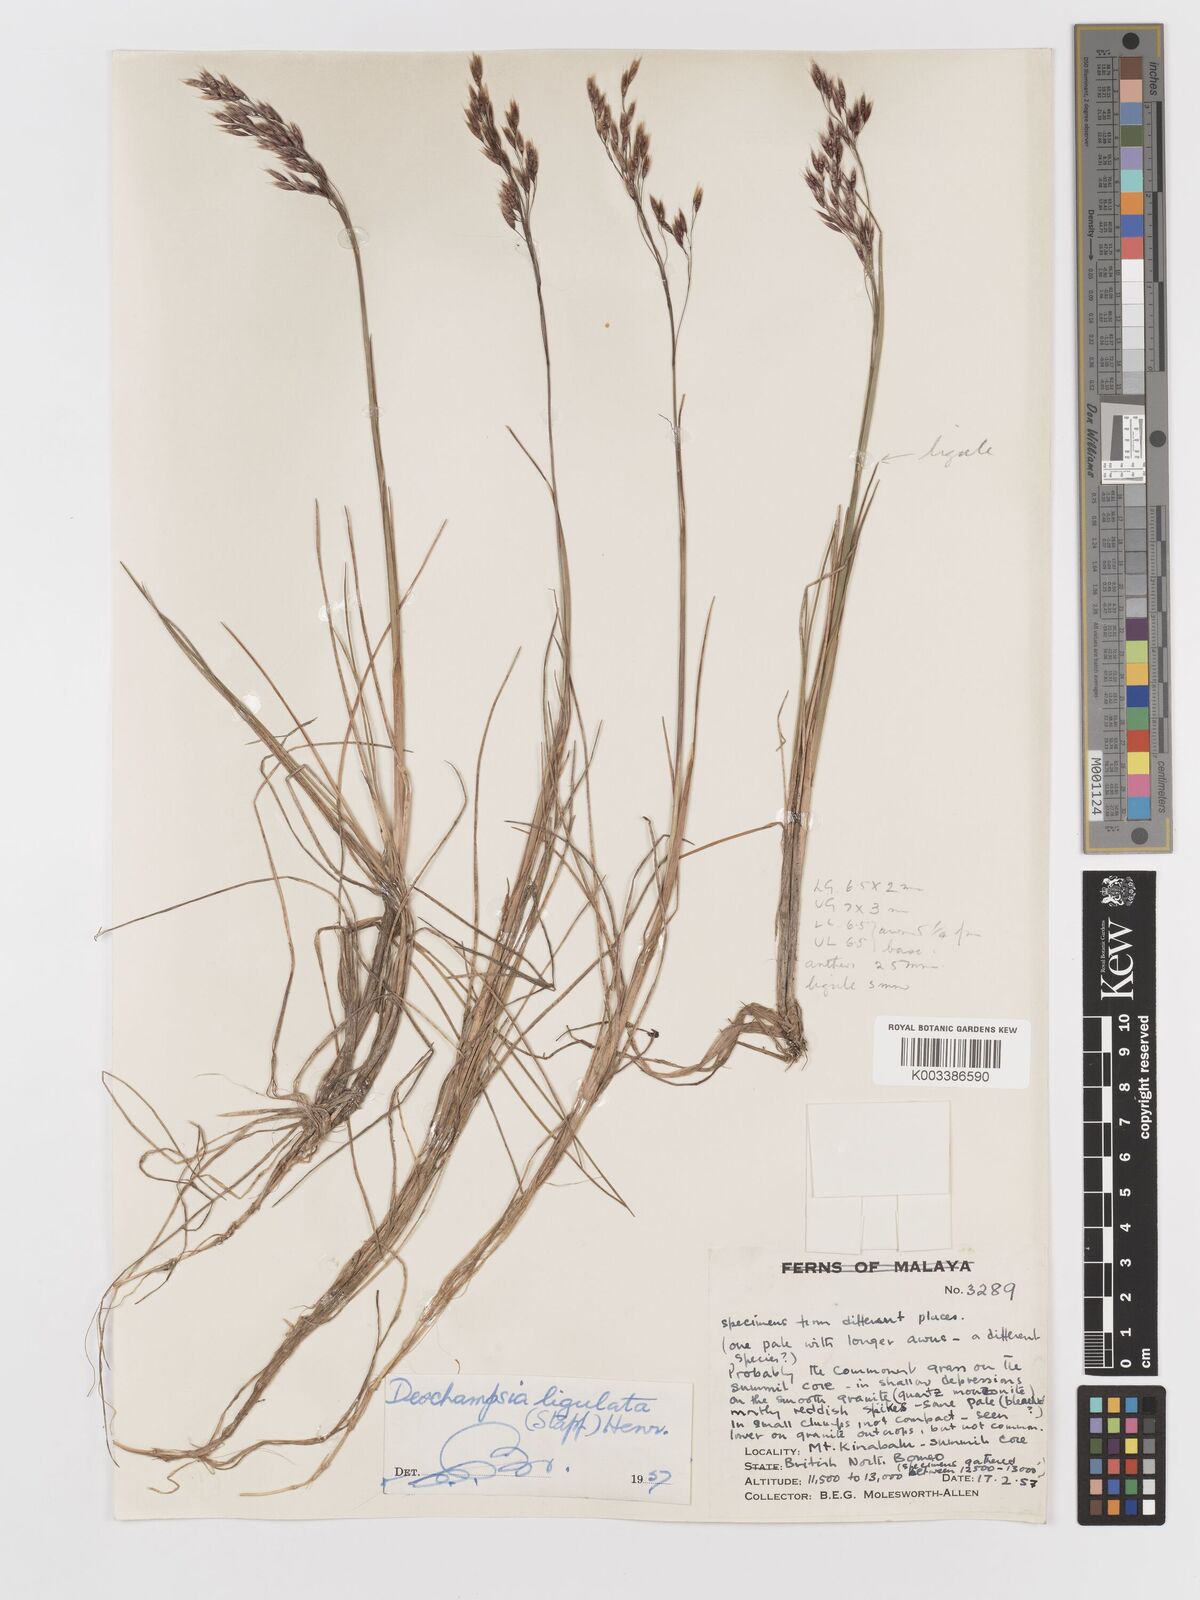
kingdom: Plantae
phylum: Tracheophyta
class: Liliopsida
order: Poales
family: Poaceae
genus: Avenella
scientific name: Avenella flexuosa
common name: Wavy hairgrass
